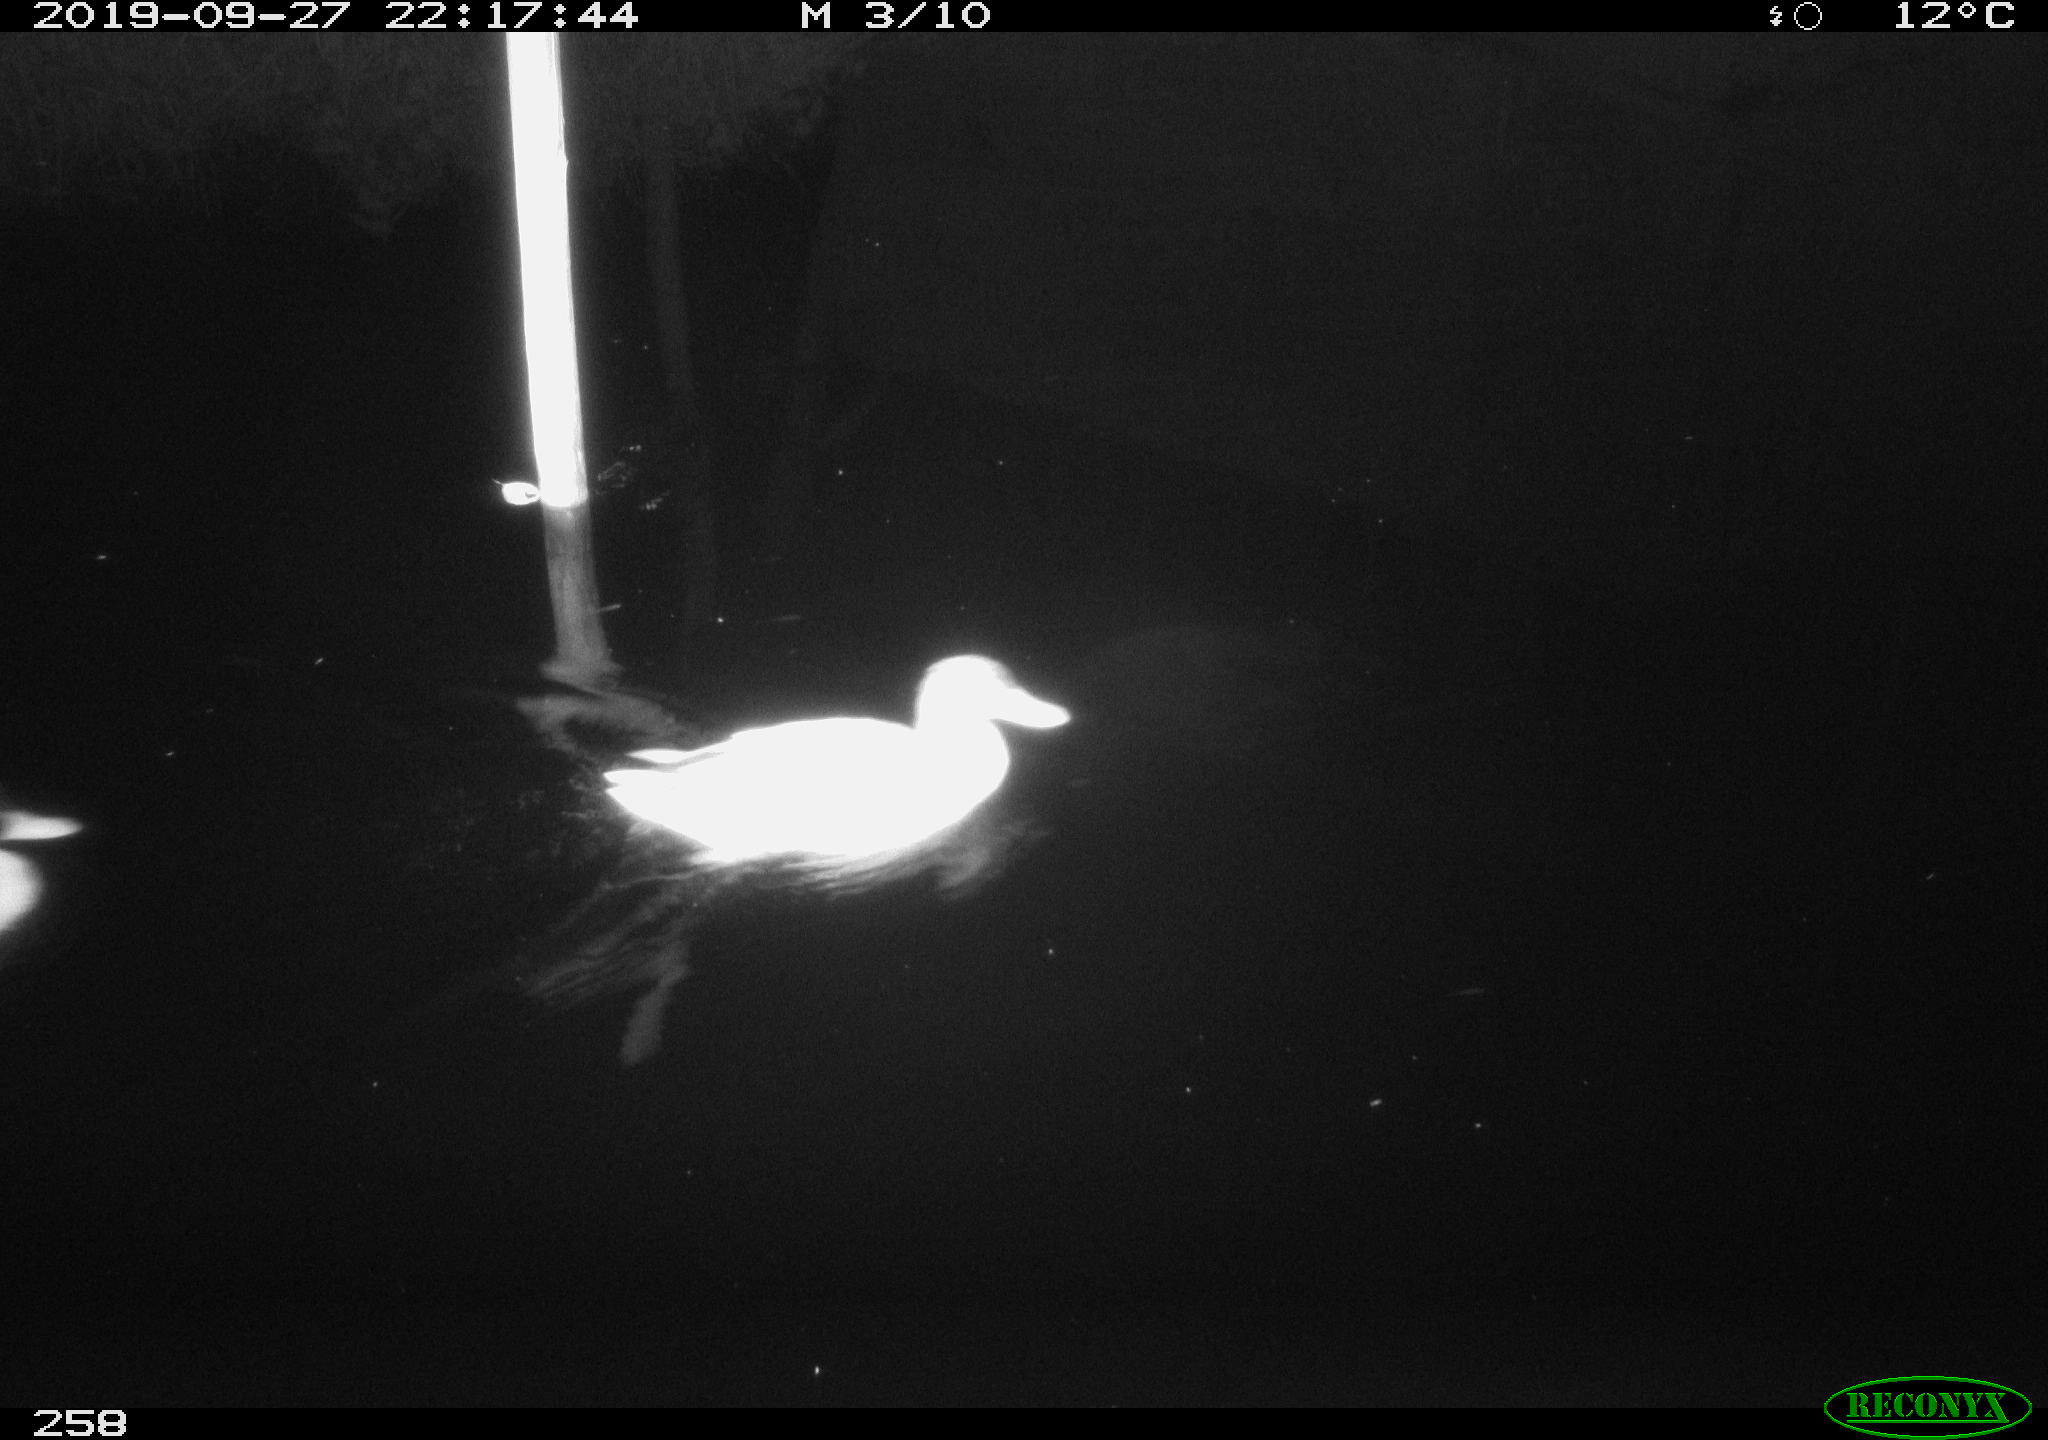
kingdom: Animalia
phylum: Chordata
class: Aves
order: Anseriformes
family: Anatidae
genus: Anas
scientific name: Anas platyrhynchos
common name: Mallard
